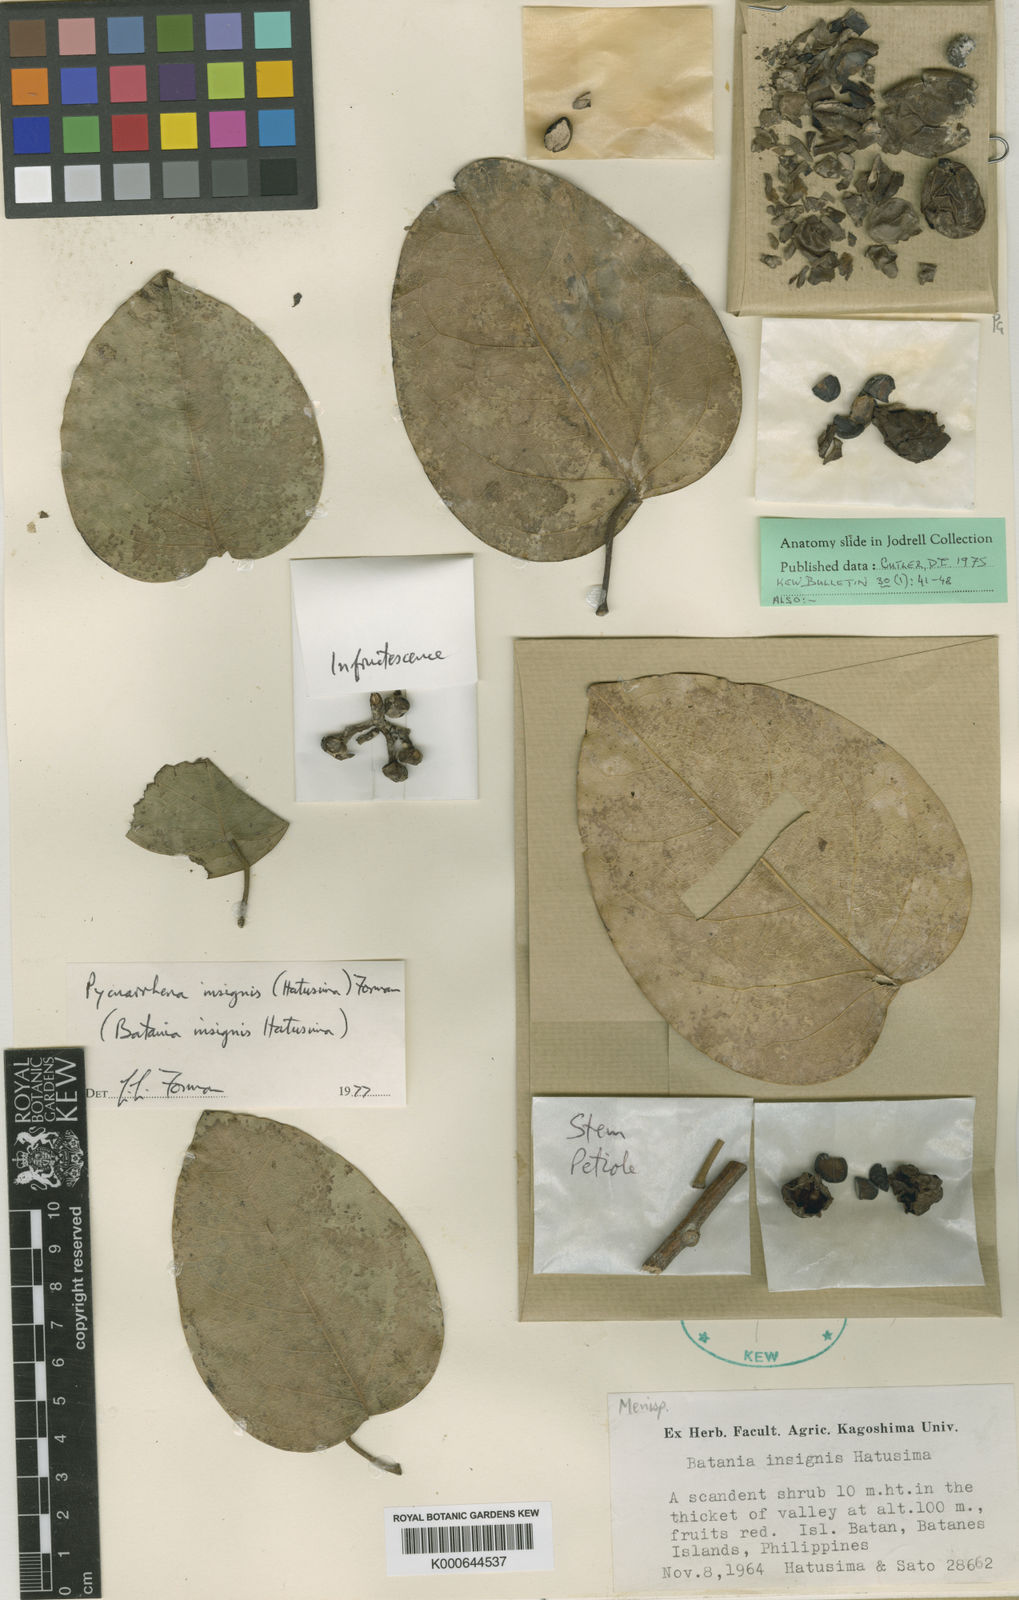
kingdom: Plantae
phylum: Tracheophyta
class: Magnoliopsida
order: Ranunculales
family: Menispermaceae
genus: Pycnarrhena
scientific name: Pycnarrhena insignis
